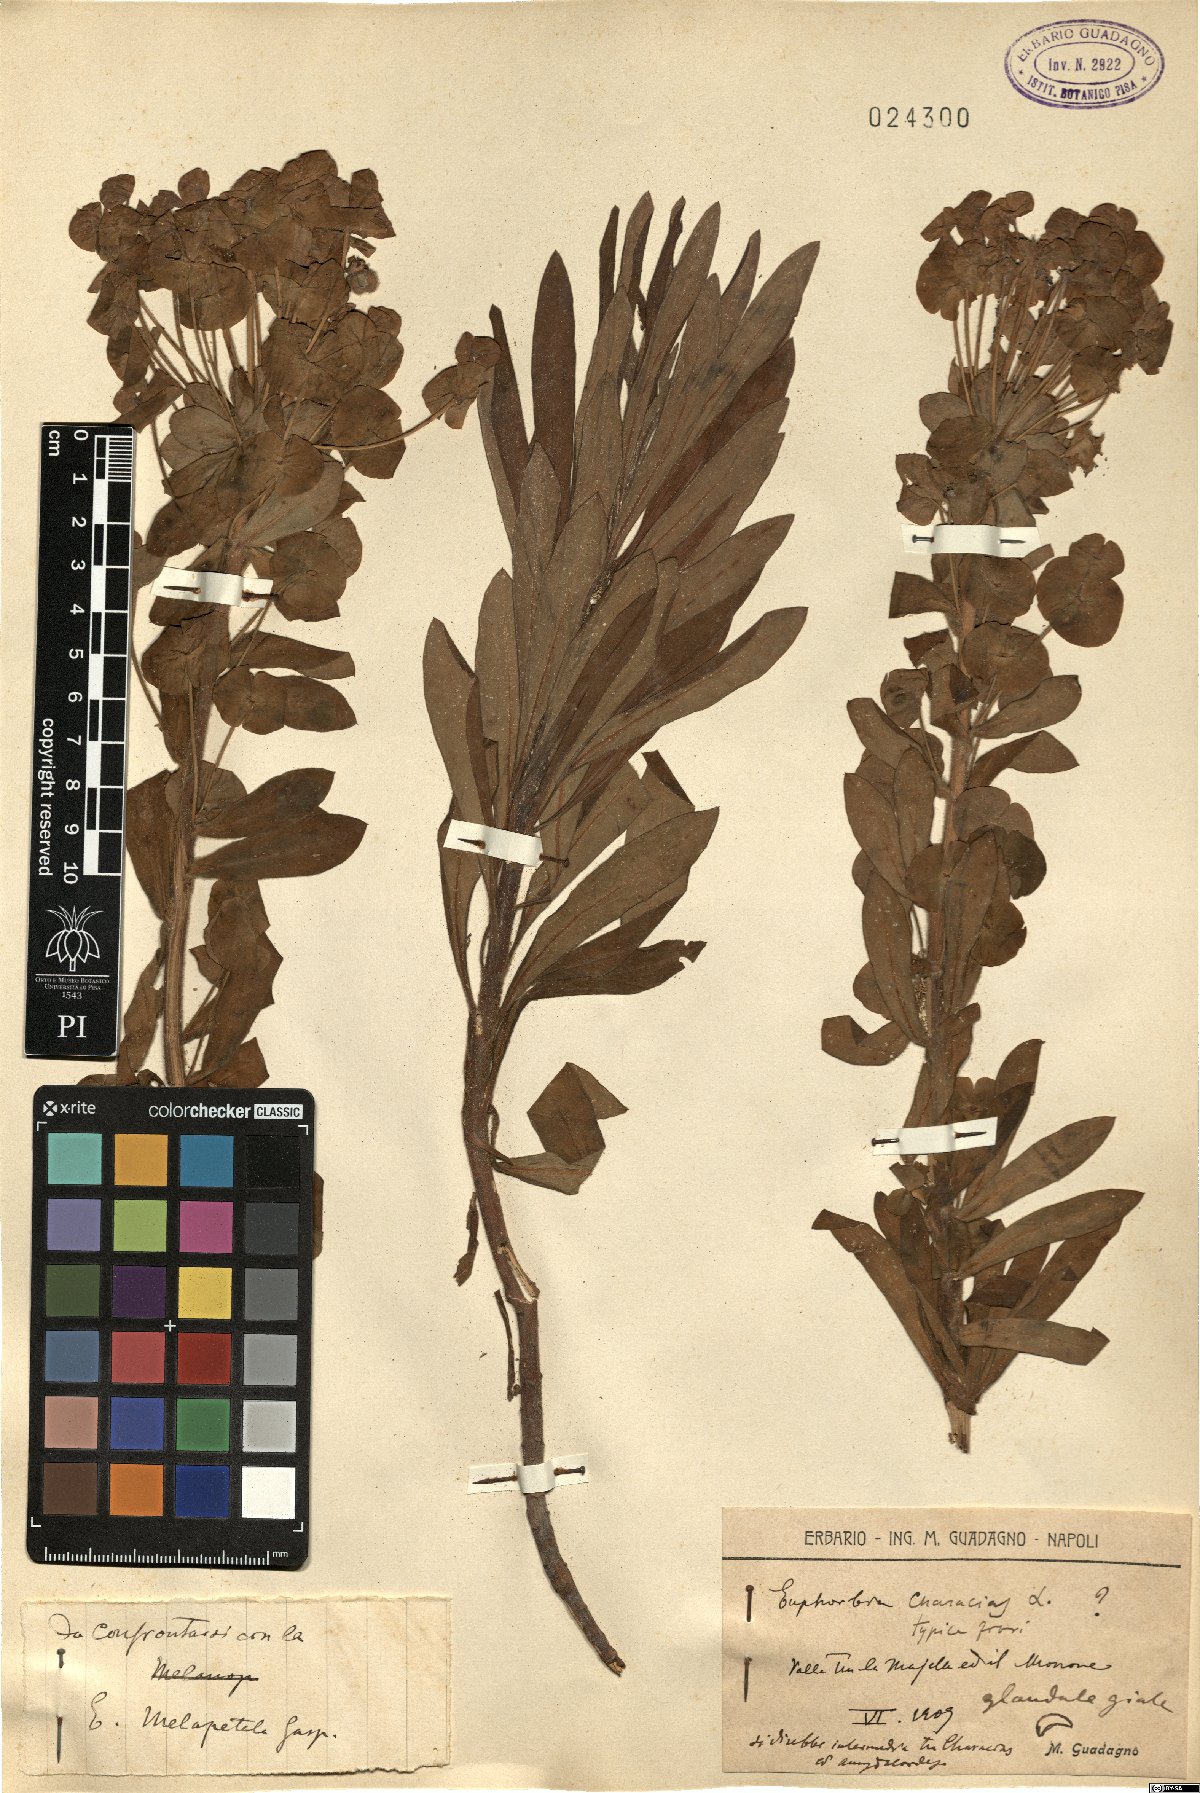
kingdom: Plantae
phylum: Tracheophyta
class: Magnoliopsida
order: Malpighiales
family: Euphorbiaceae
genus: Euphorbia
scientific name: Euphorbia characias
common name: Mediterranean spurge
